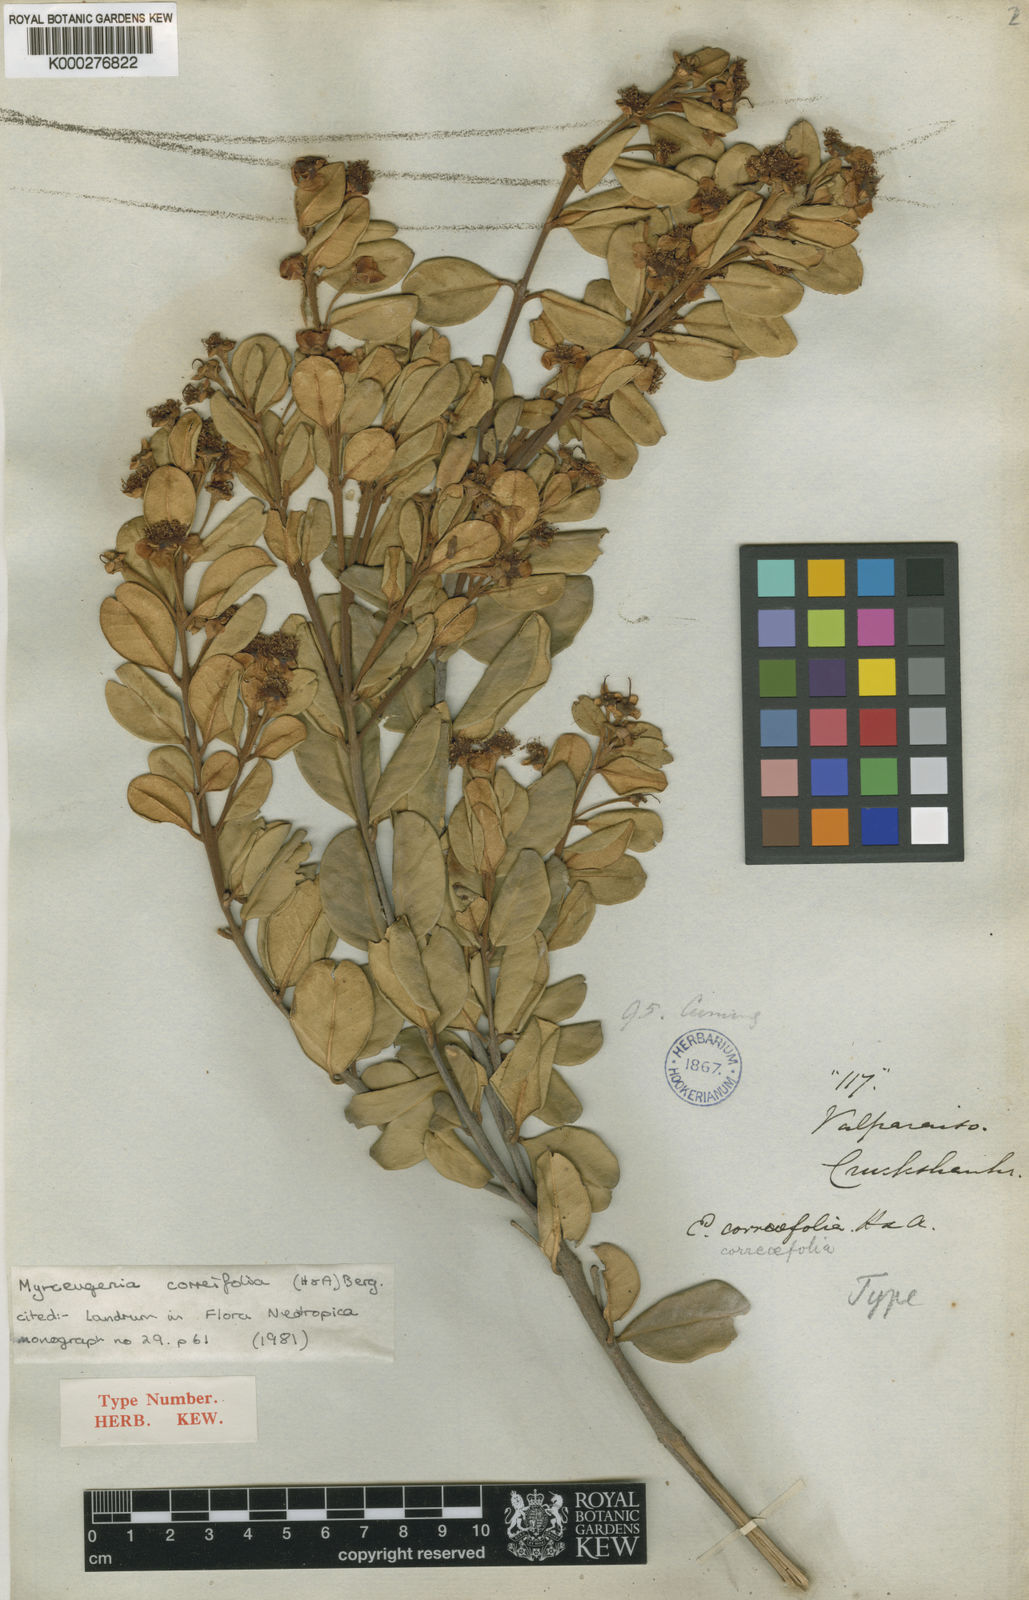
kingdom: Plantae
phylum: Tracheophyta
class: Magnoliopsida
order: Myrtales
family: Myrtaceae
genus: Myrceugenia
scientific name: Myrceugenia correifolia
